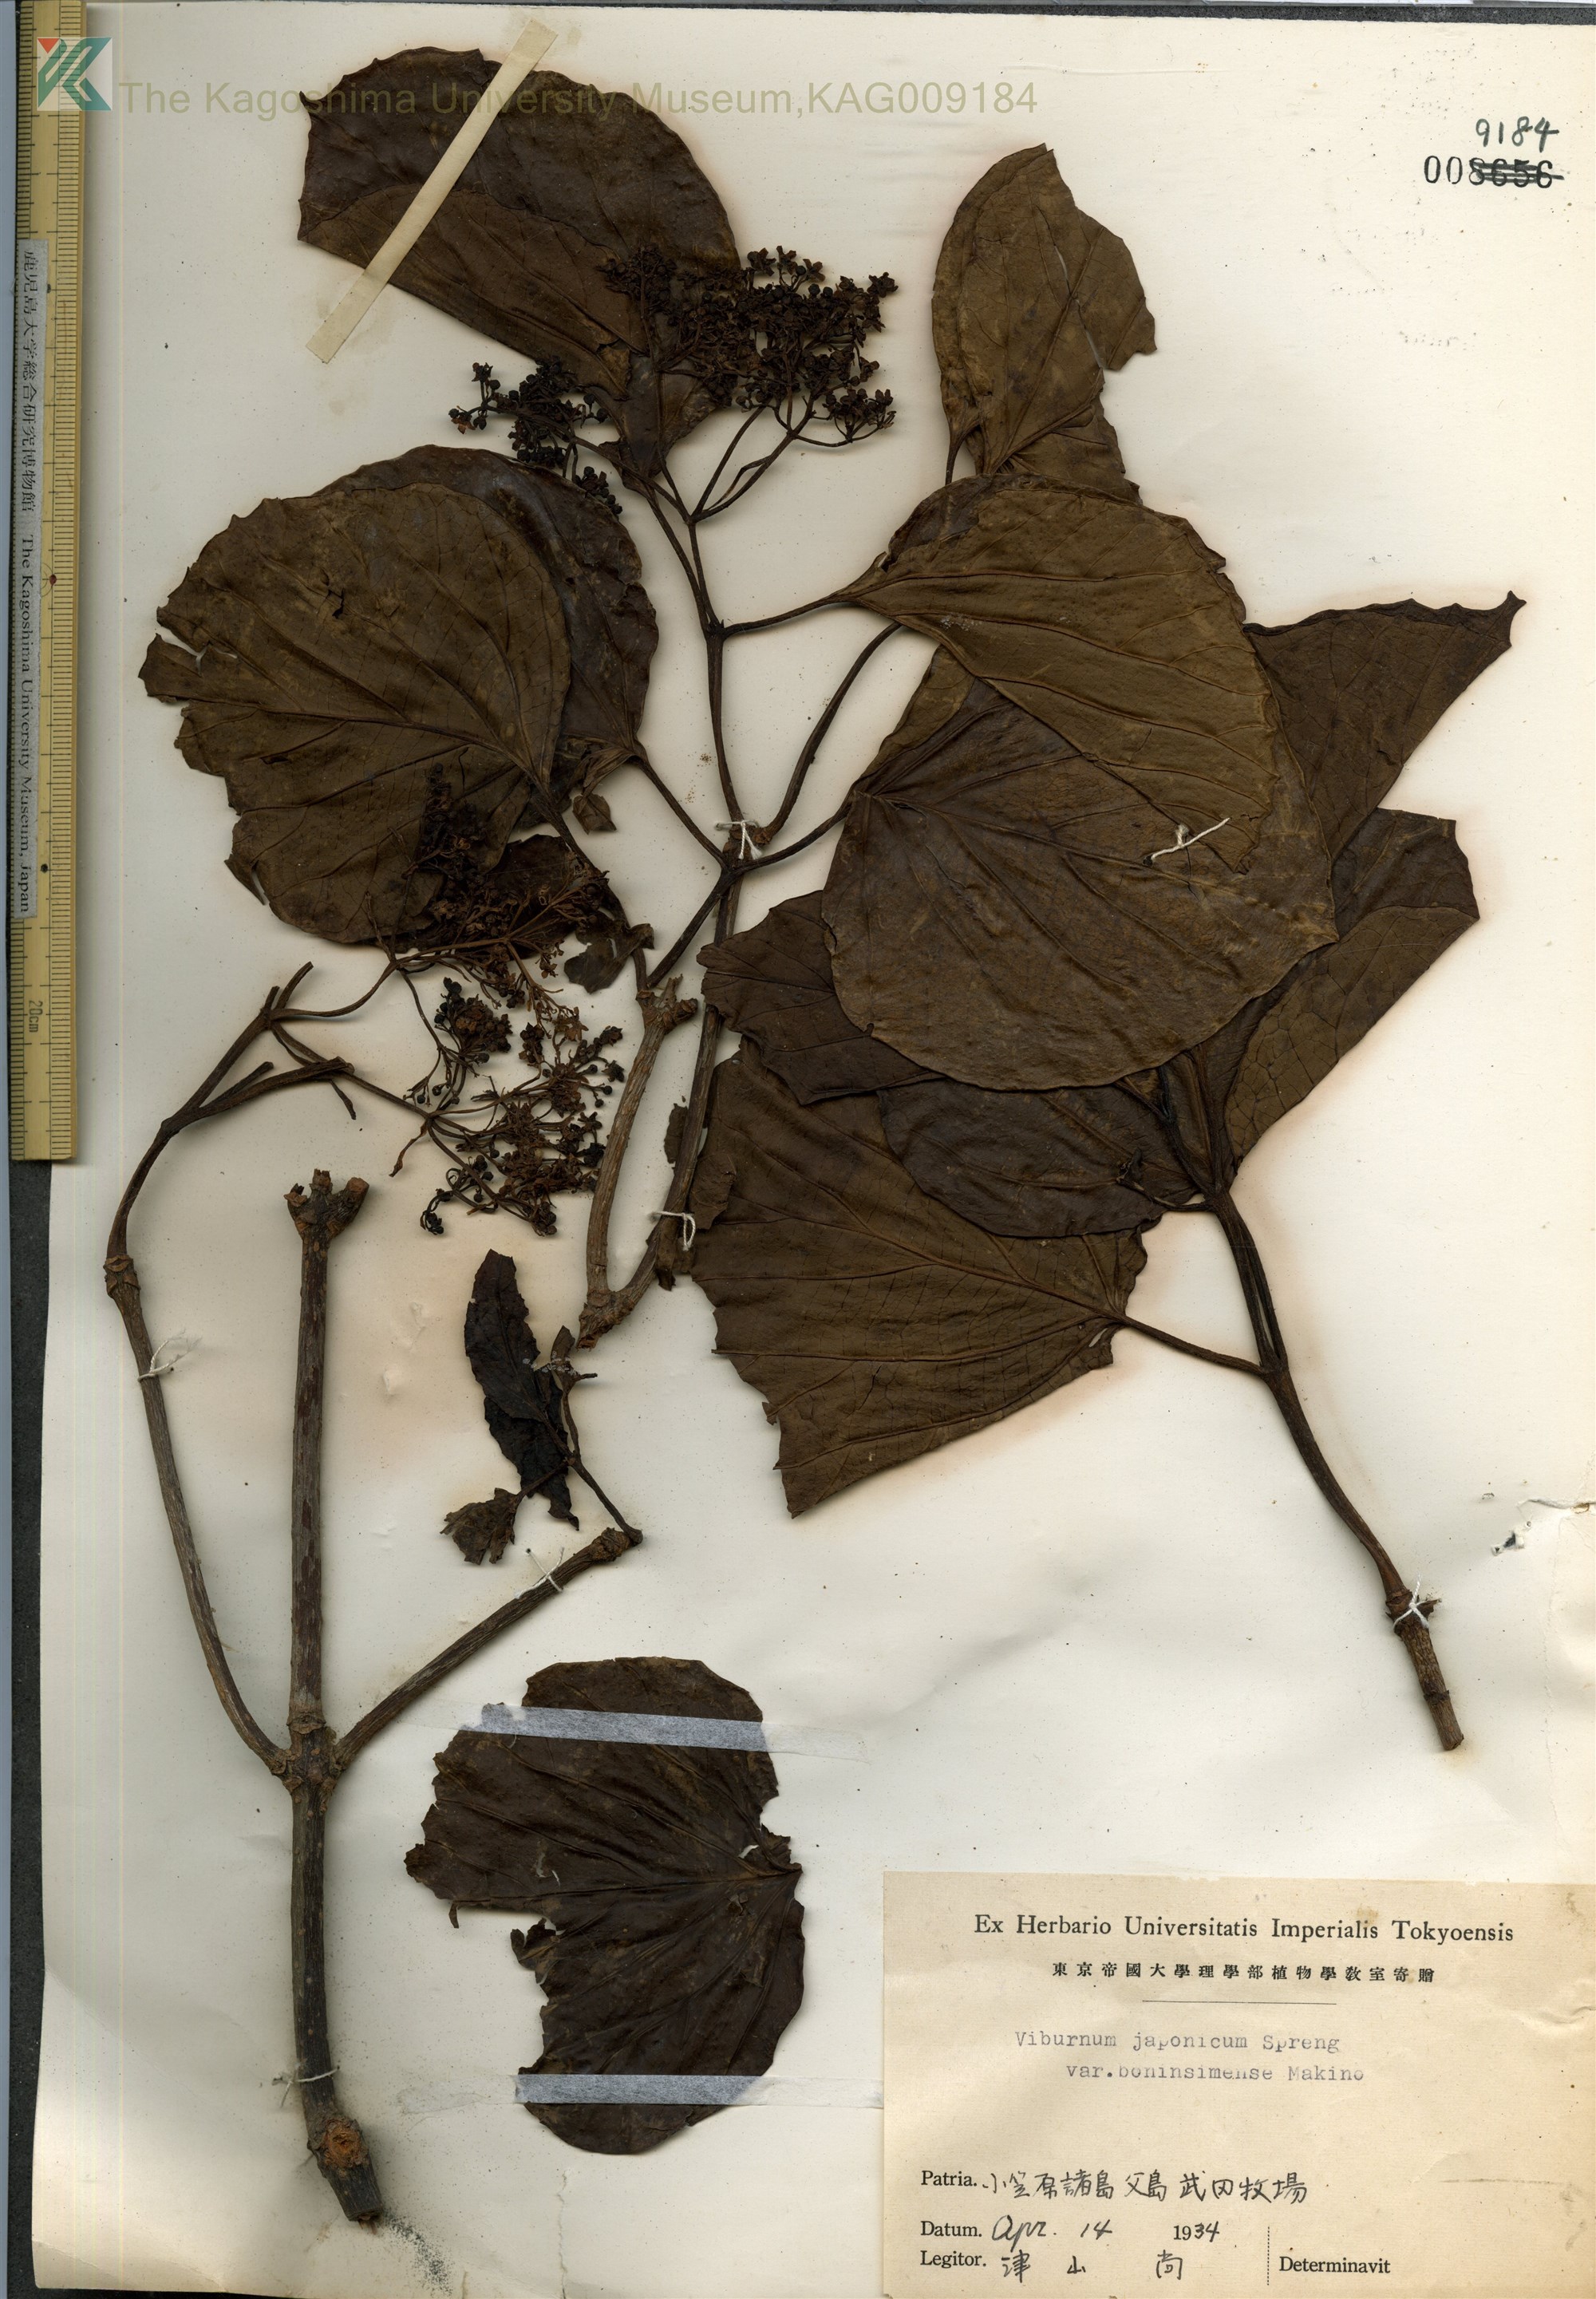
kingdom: Plantae
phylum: Tracheophyta
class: Magnoliopsida
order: Dipsacales
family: Viburnaceae
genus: Viburnum
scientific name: Viburnum japonicum
